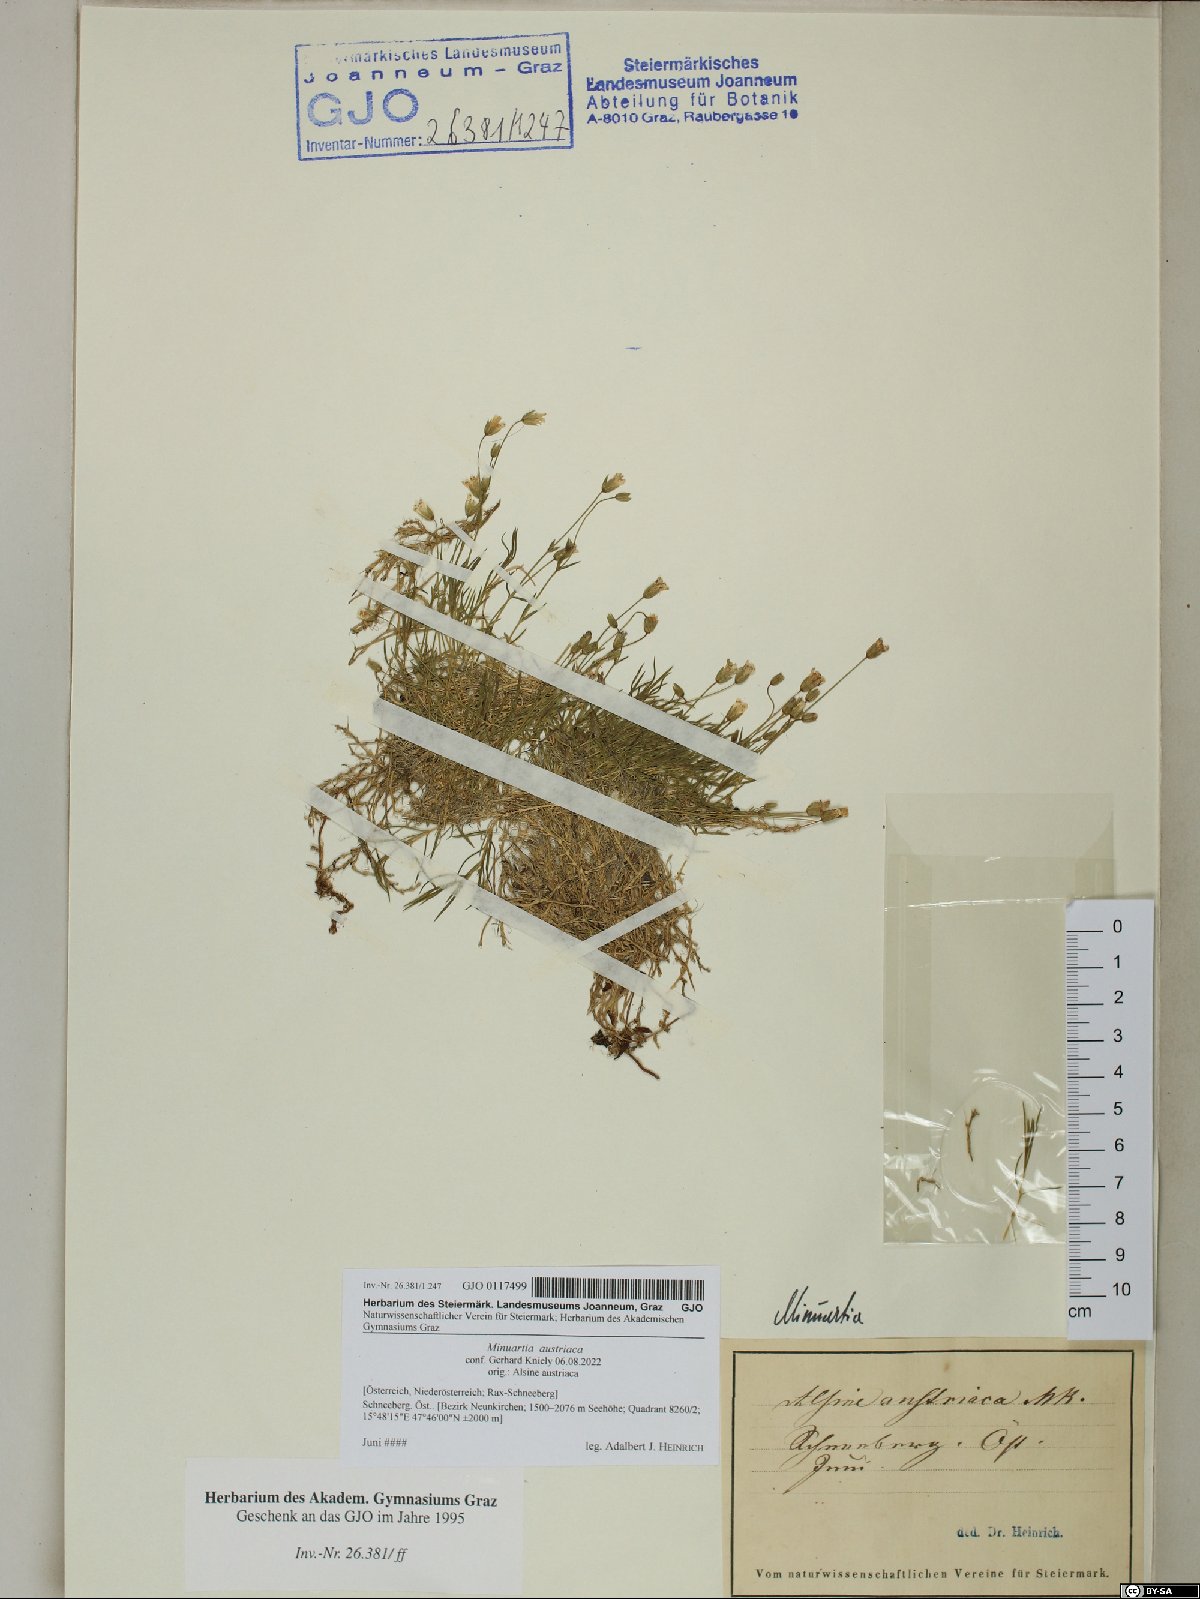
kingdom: Plantae
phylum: Tracheophyta
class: Magnoliopsida
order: Caryophyllales
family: Caryophyllaceae
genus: Sabulina
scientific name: Sabulina austriaca
